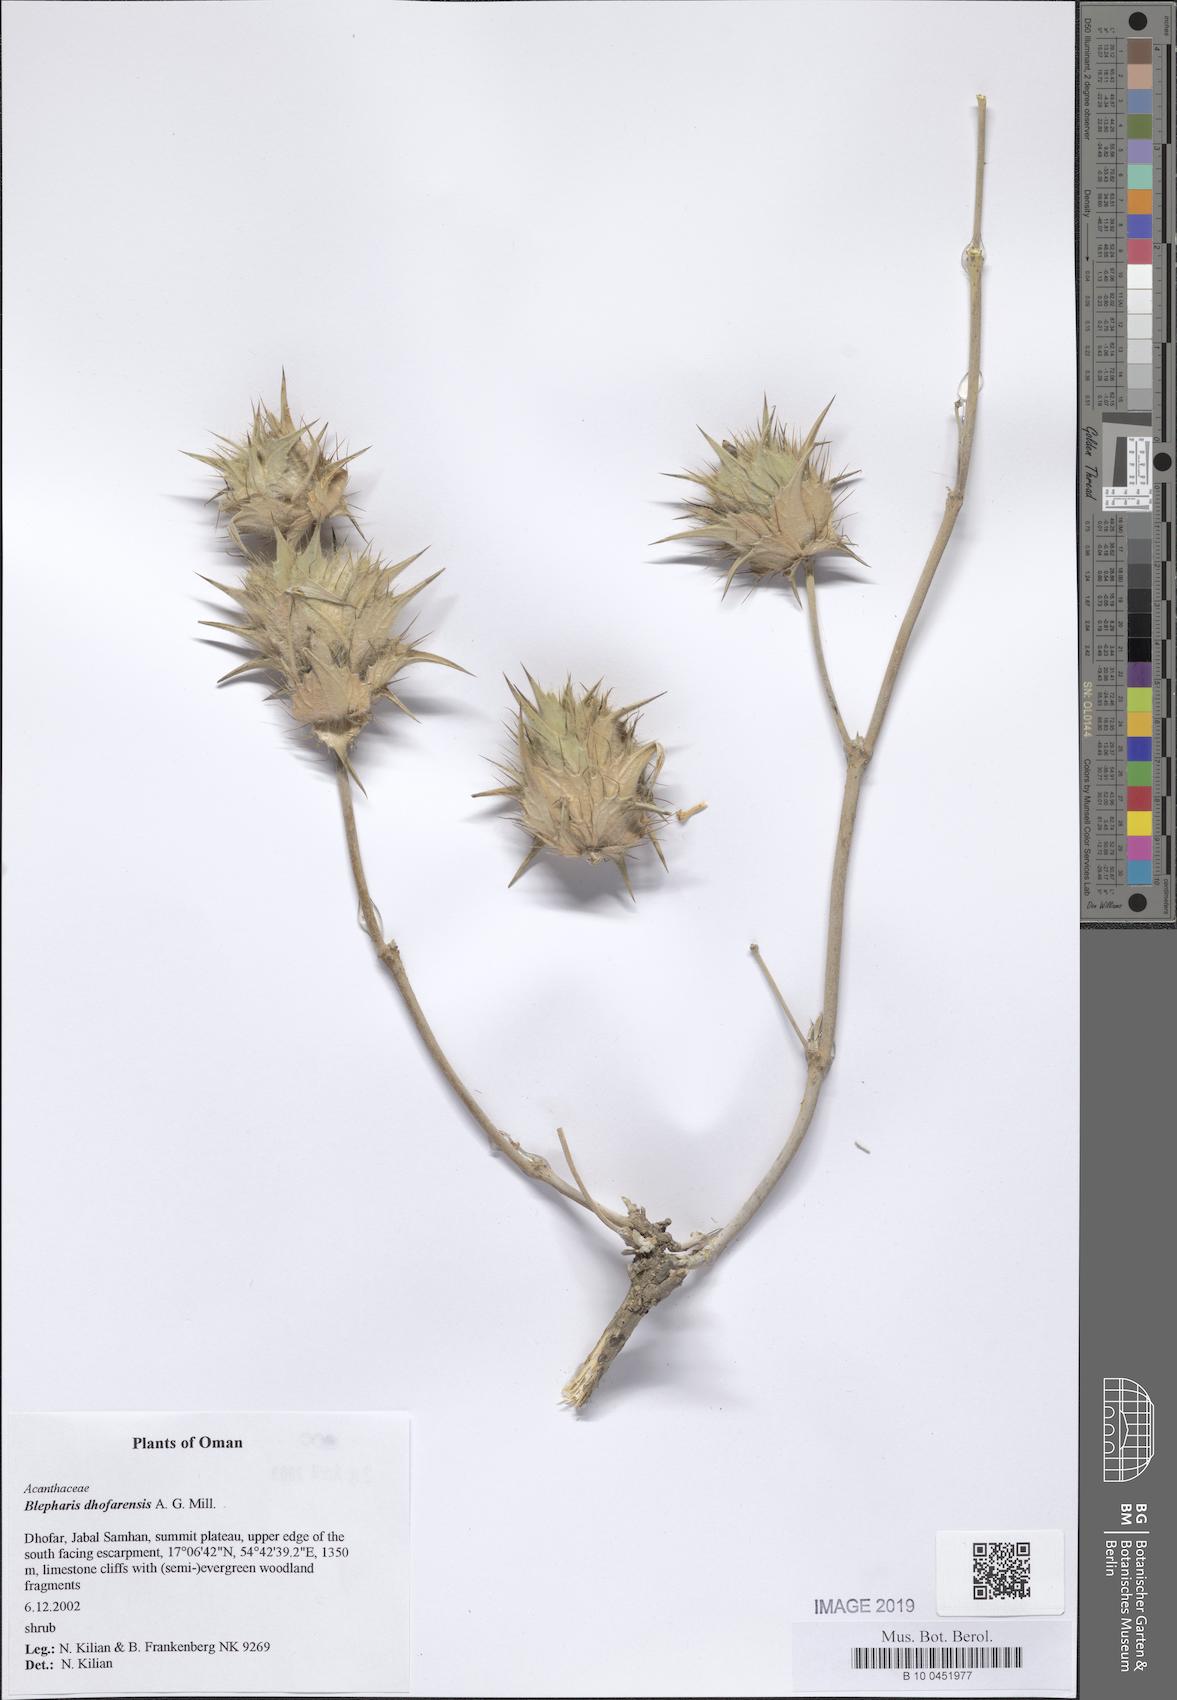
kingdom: Plantae
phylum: Tracheophyta
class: Magnoliopsida
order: Lamiales
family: Acanthaceae
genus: Blepharis
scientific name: Blepharis dhofarensis
